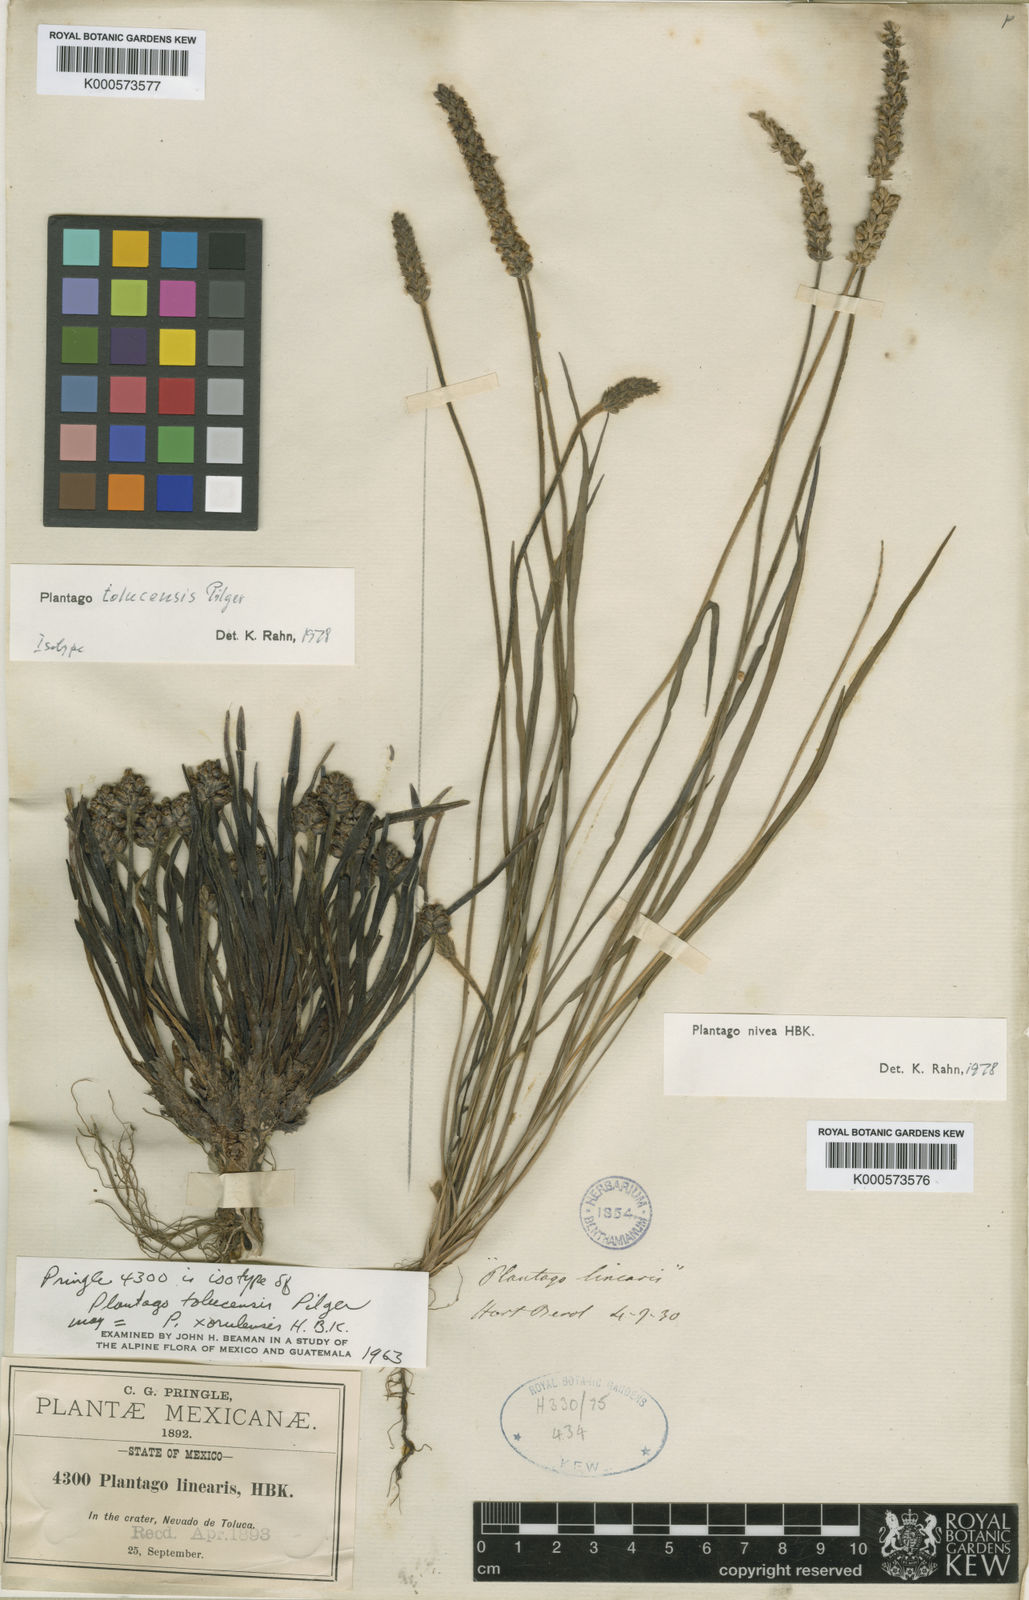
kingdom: Plantae
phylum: Tracheophyta
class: Magnoliopsida
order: Lamiales
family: Plantaginaceae
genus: Plantago
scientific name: Plantago tolucensis
